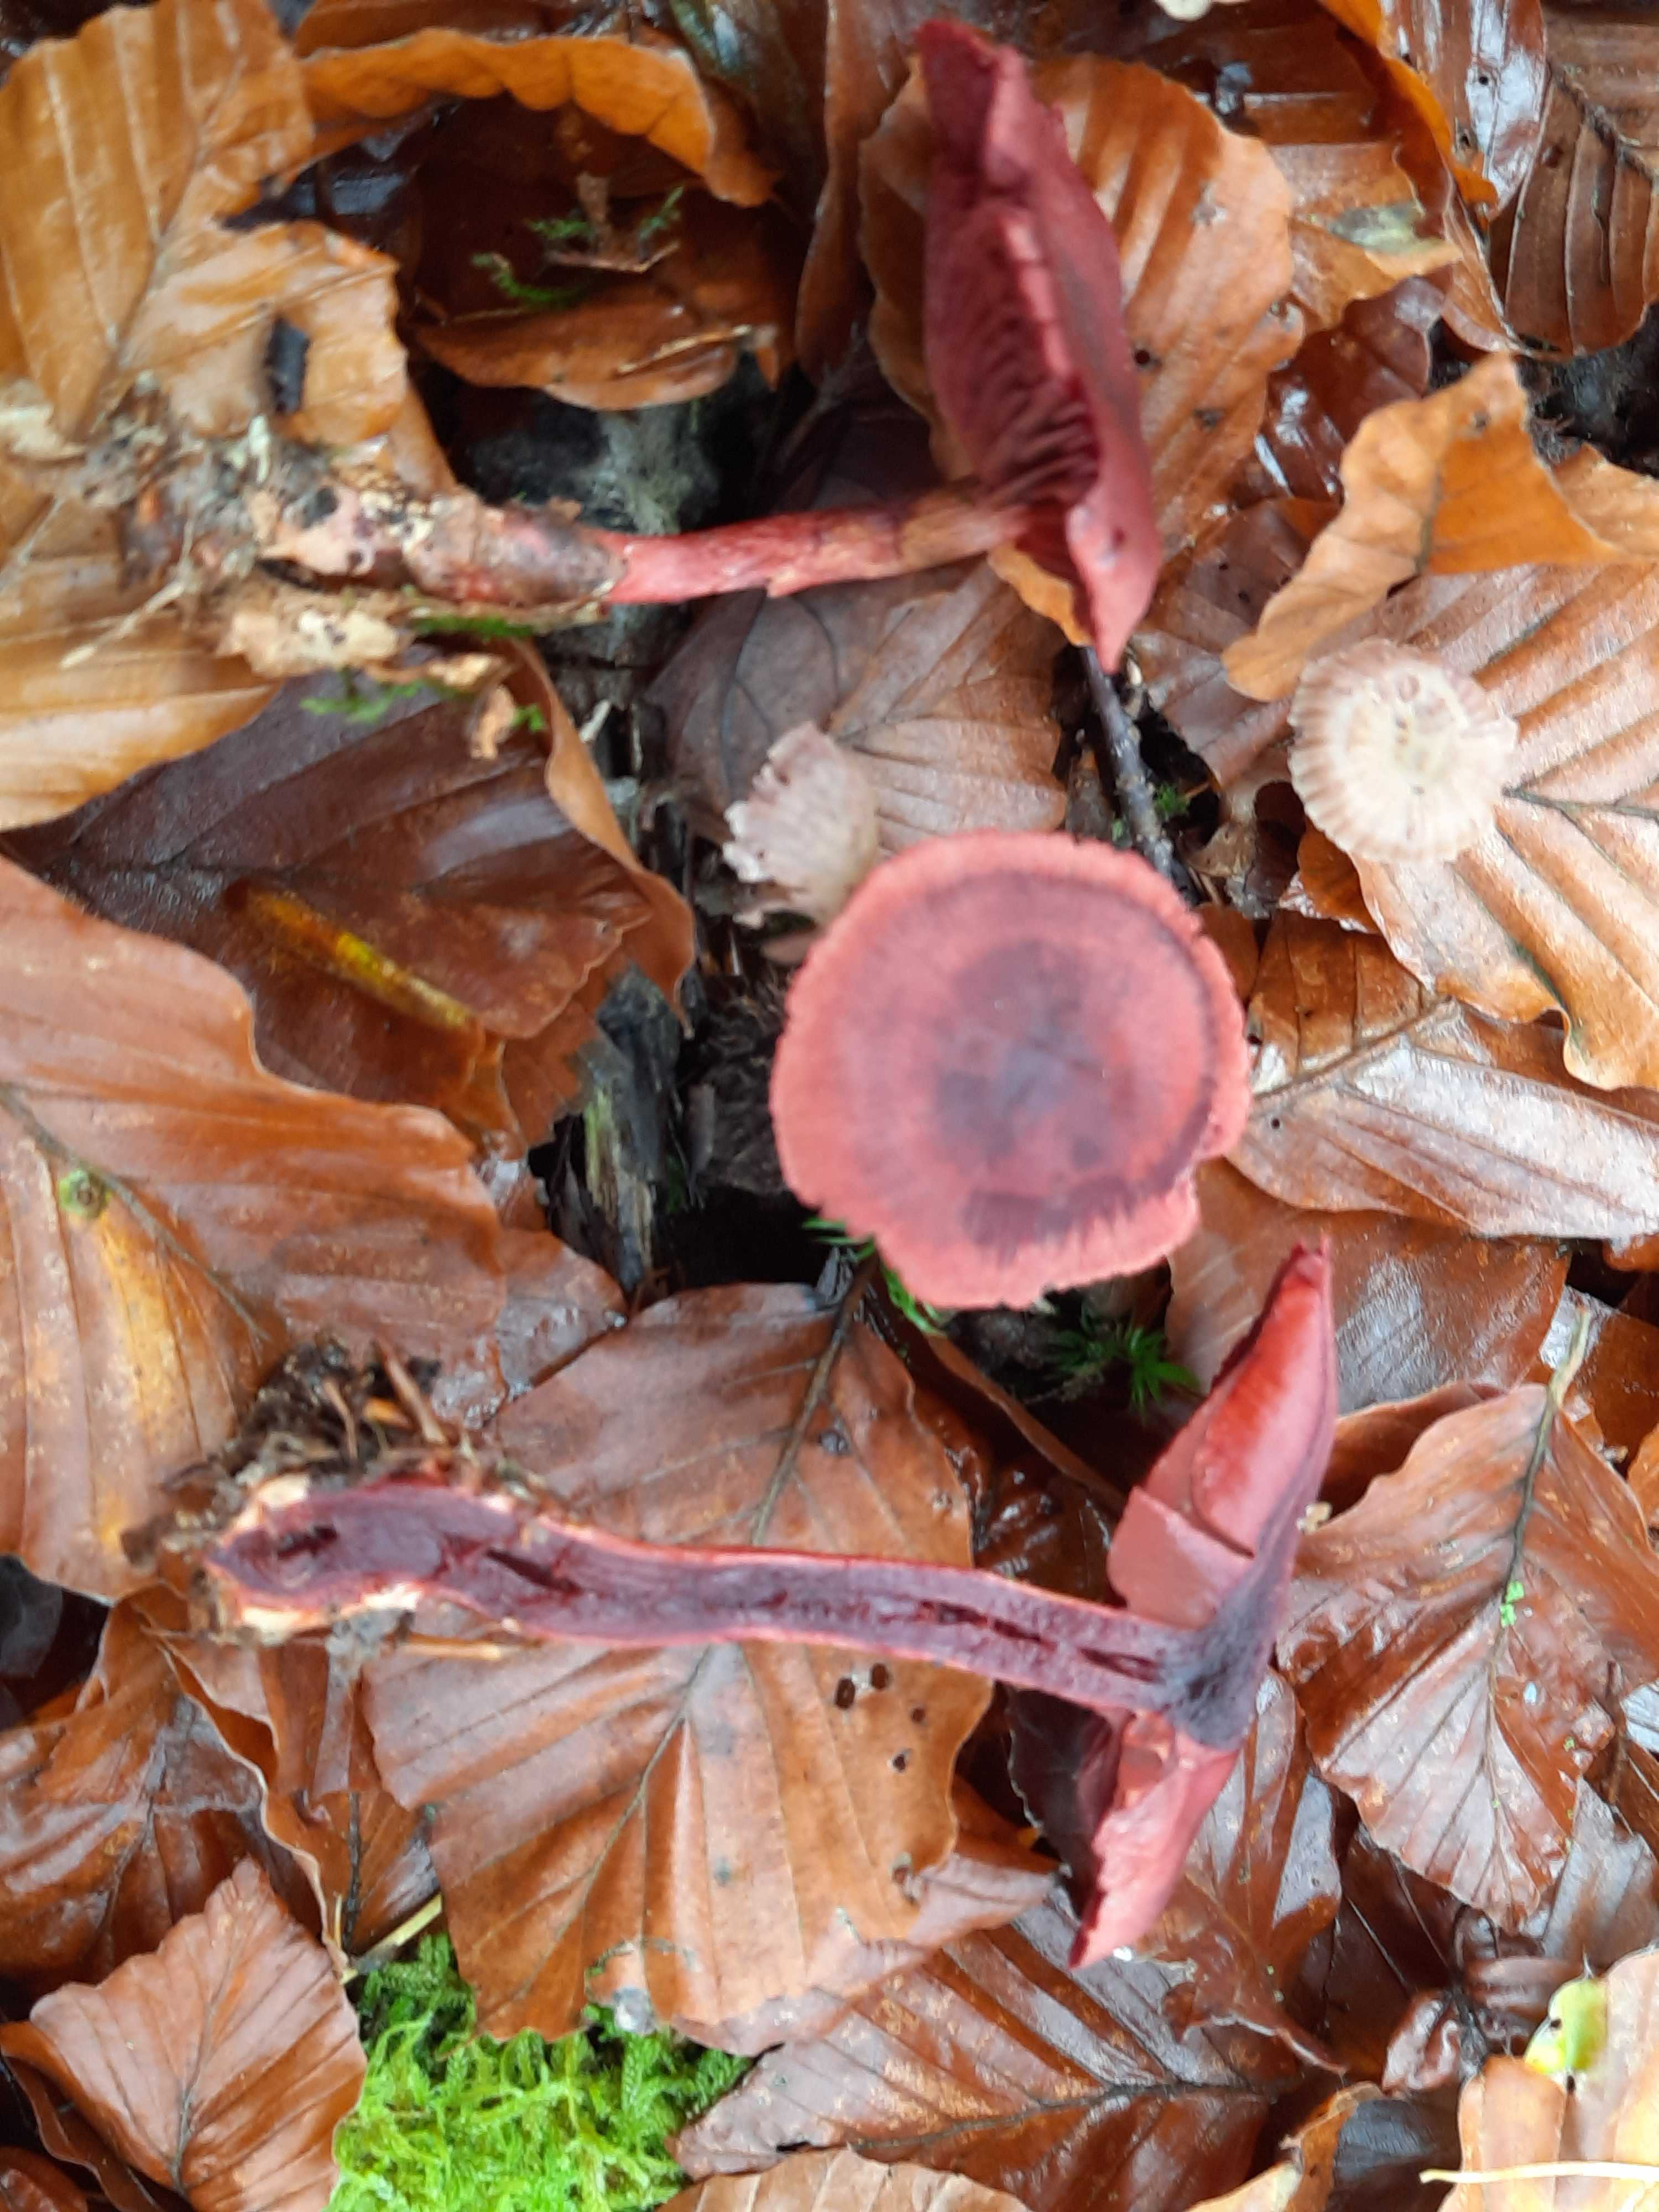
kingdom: Fungi
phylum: Basidiomycota
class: Agaricomycetes
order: Agaricales
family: Cortinariaceae
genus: Cortinarius
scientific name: Cortinarius sanguineus
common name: Bloodred webcap
